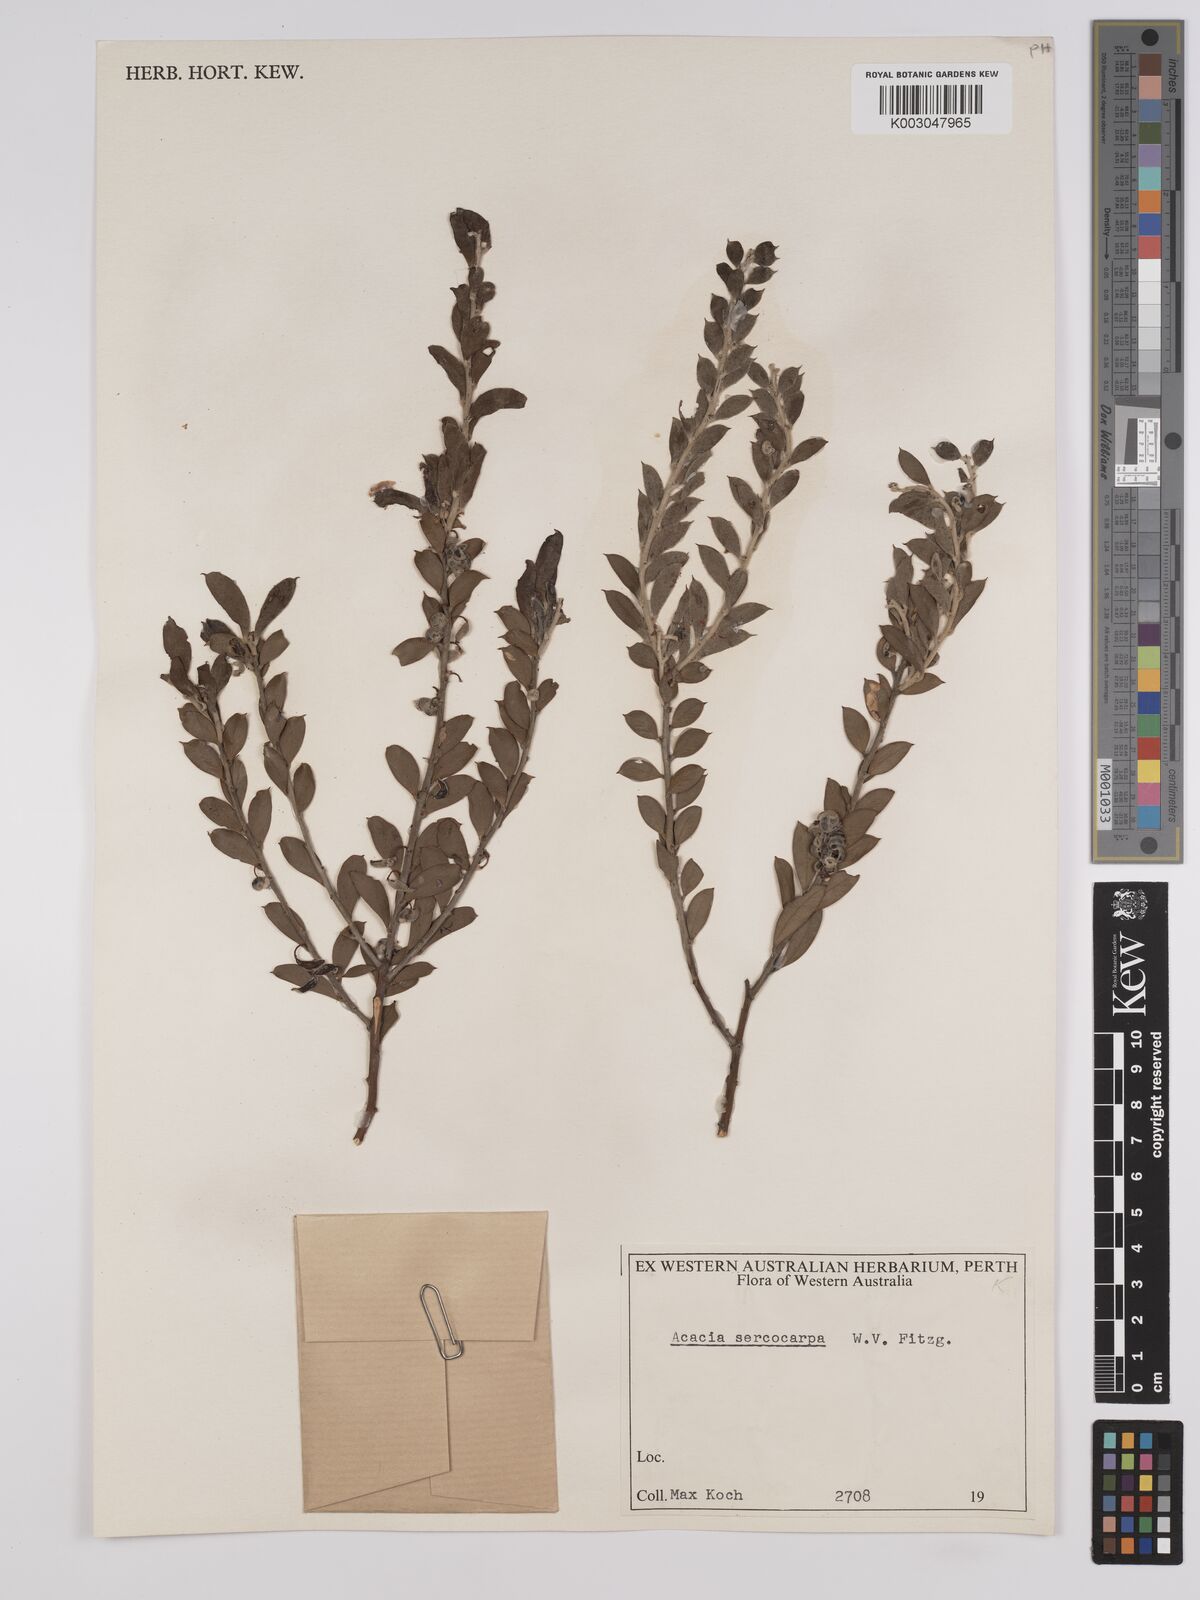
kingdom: Plantae
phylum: Tracheophyta
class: Magnoliopsida
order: Fabales
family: Fabaceae
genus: Acacia
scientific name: Acacia merrallii
